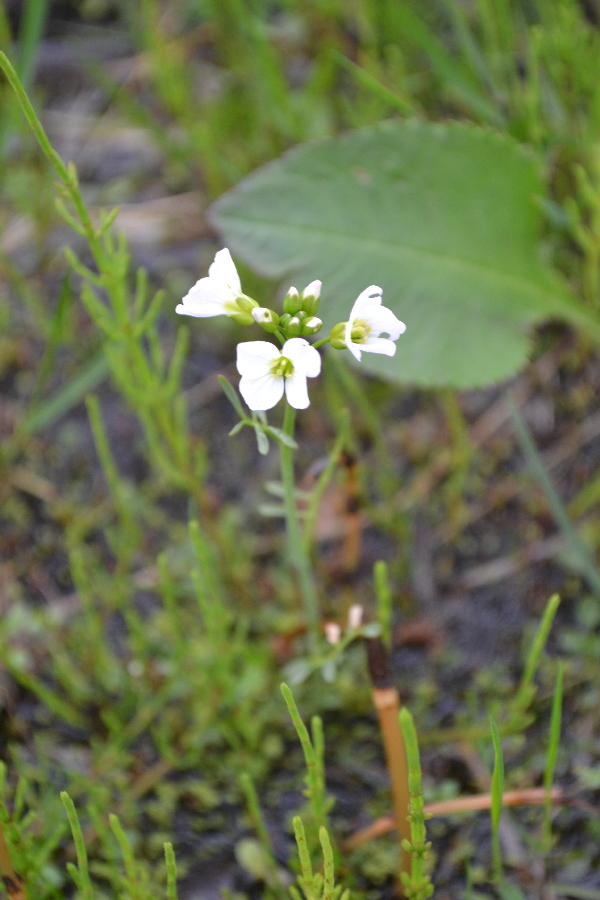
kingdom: Plantae
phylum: Tracheophyta
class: Magnoliopsida
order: Brassicales
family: Brassicaceae
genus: Cardamine
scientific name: Cardamine pratensis
